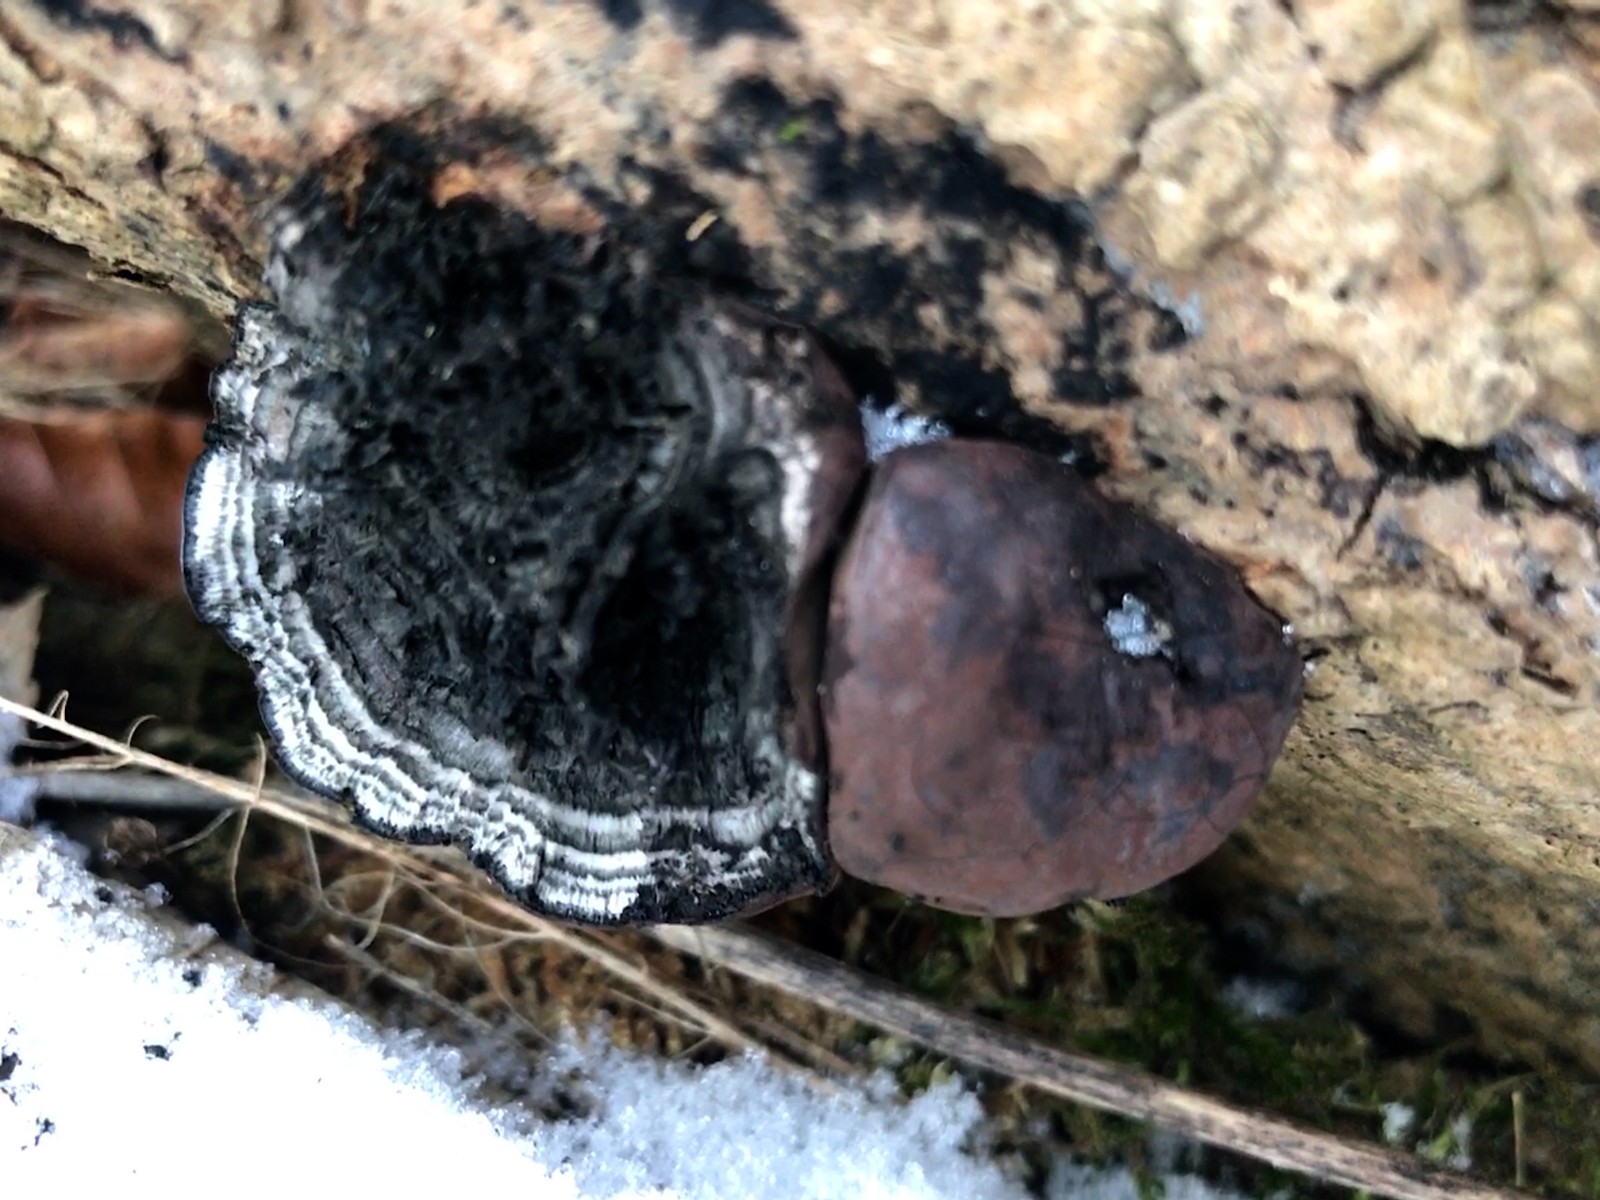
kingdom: Fungi
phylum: Ascomycota
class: Sordariomycetes
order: Xylariales
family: Hypoxylaceae
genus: Daldinia
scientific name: Daldinia concentrica
